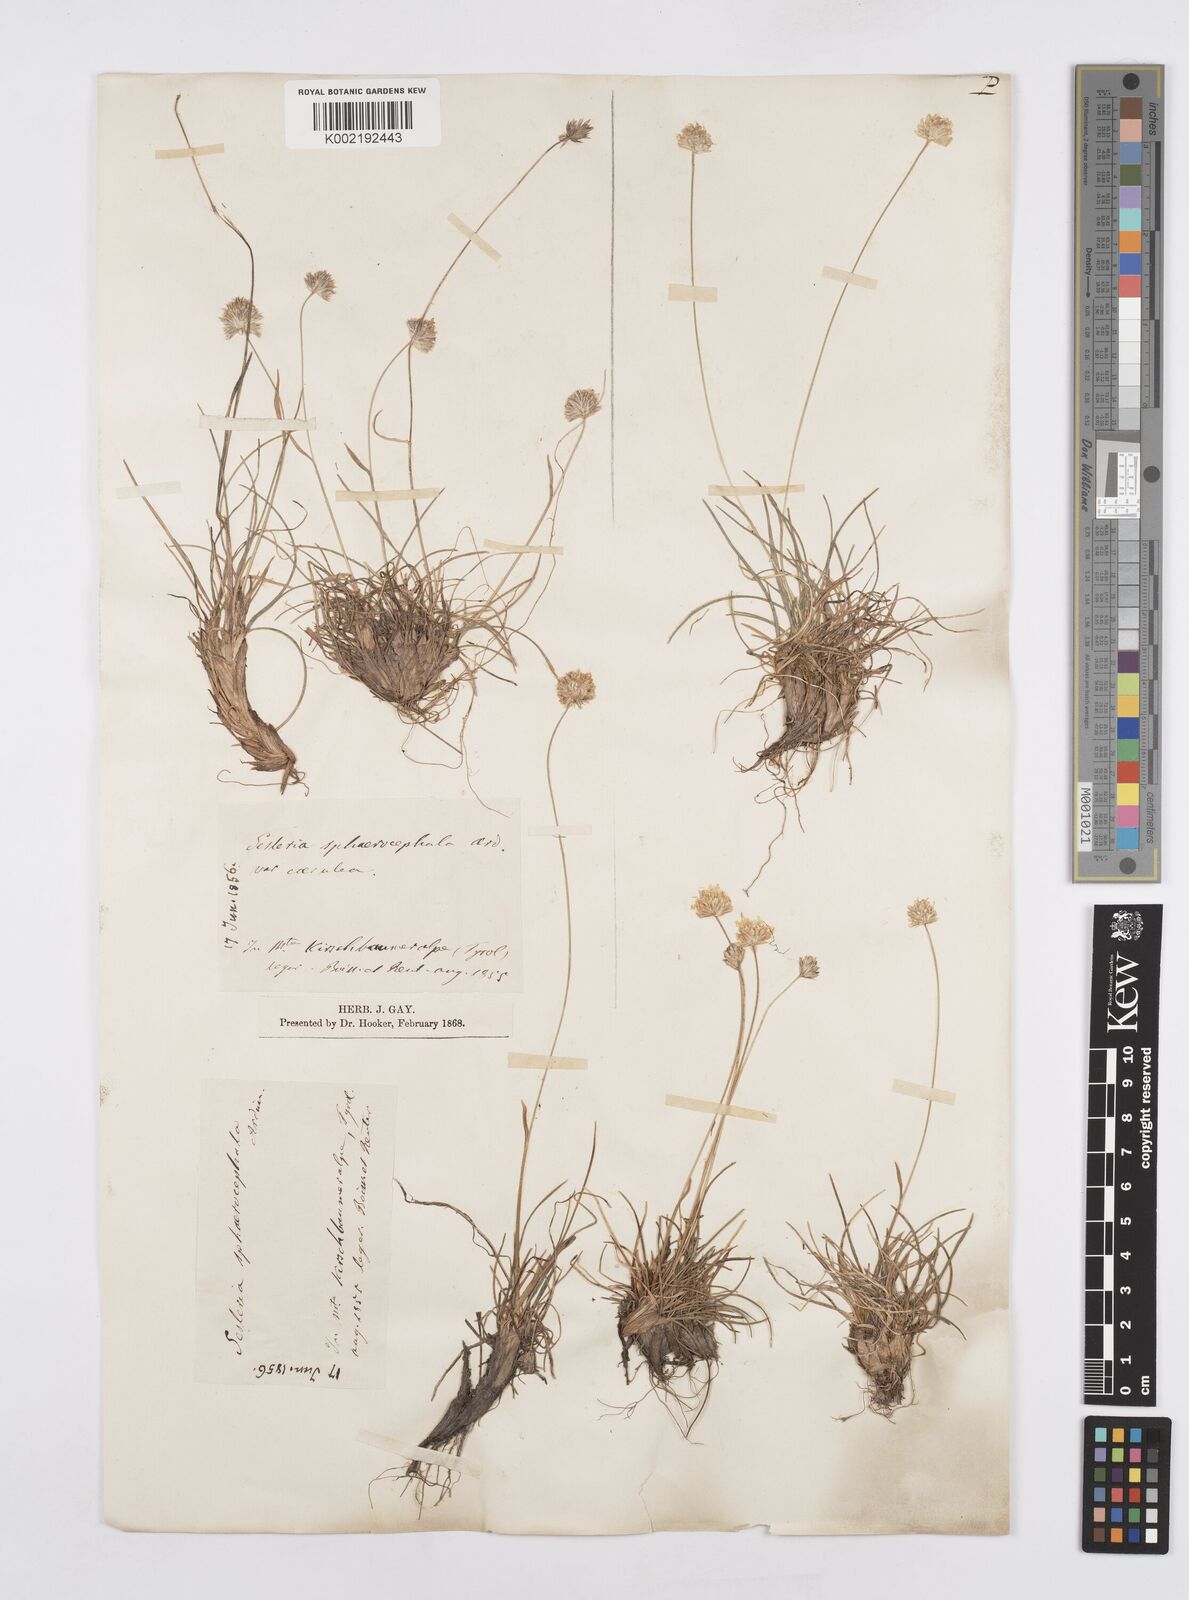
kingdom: Plantae
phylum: Tracheophyta
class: Liliopsida
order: Poales
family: Poaceae
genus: Sesleriella
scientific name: Sesleriella sphaerocephala
